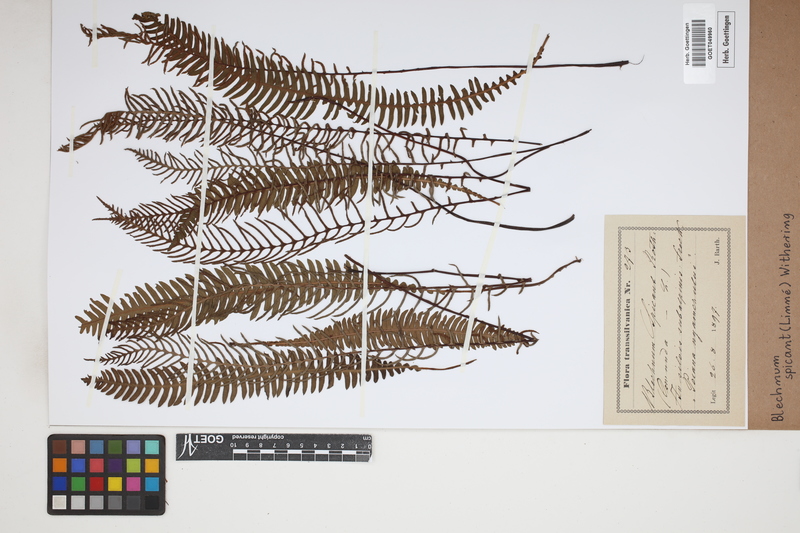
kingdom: Plantae
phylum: Tracheophyta
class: Polypodiopsida
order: Polypodiales
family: Blechnaceae
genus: Struthiopteris
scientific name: Struthiopteris spicant
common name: Deer fern
